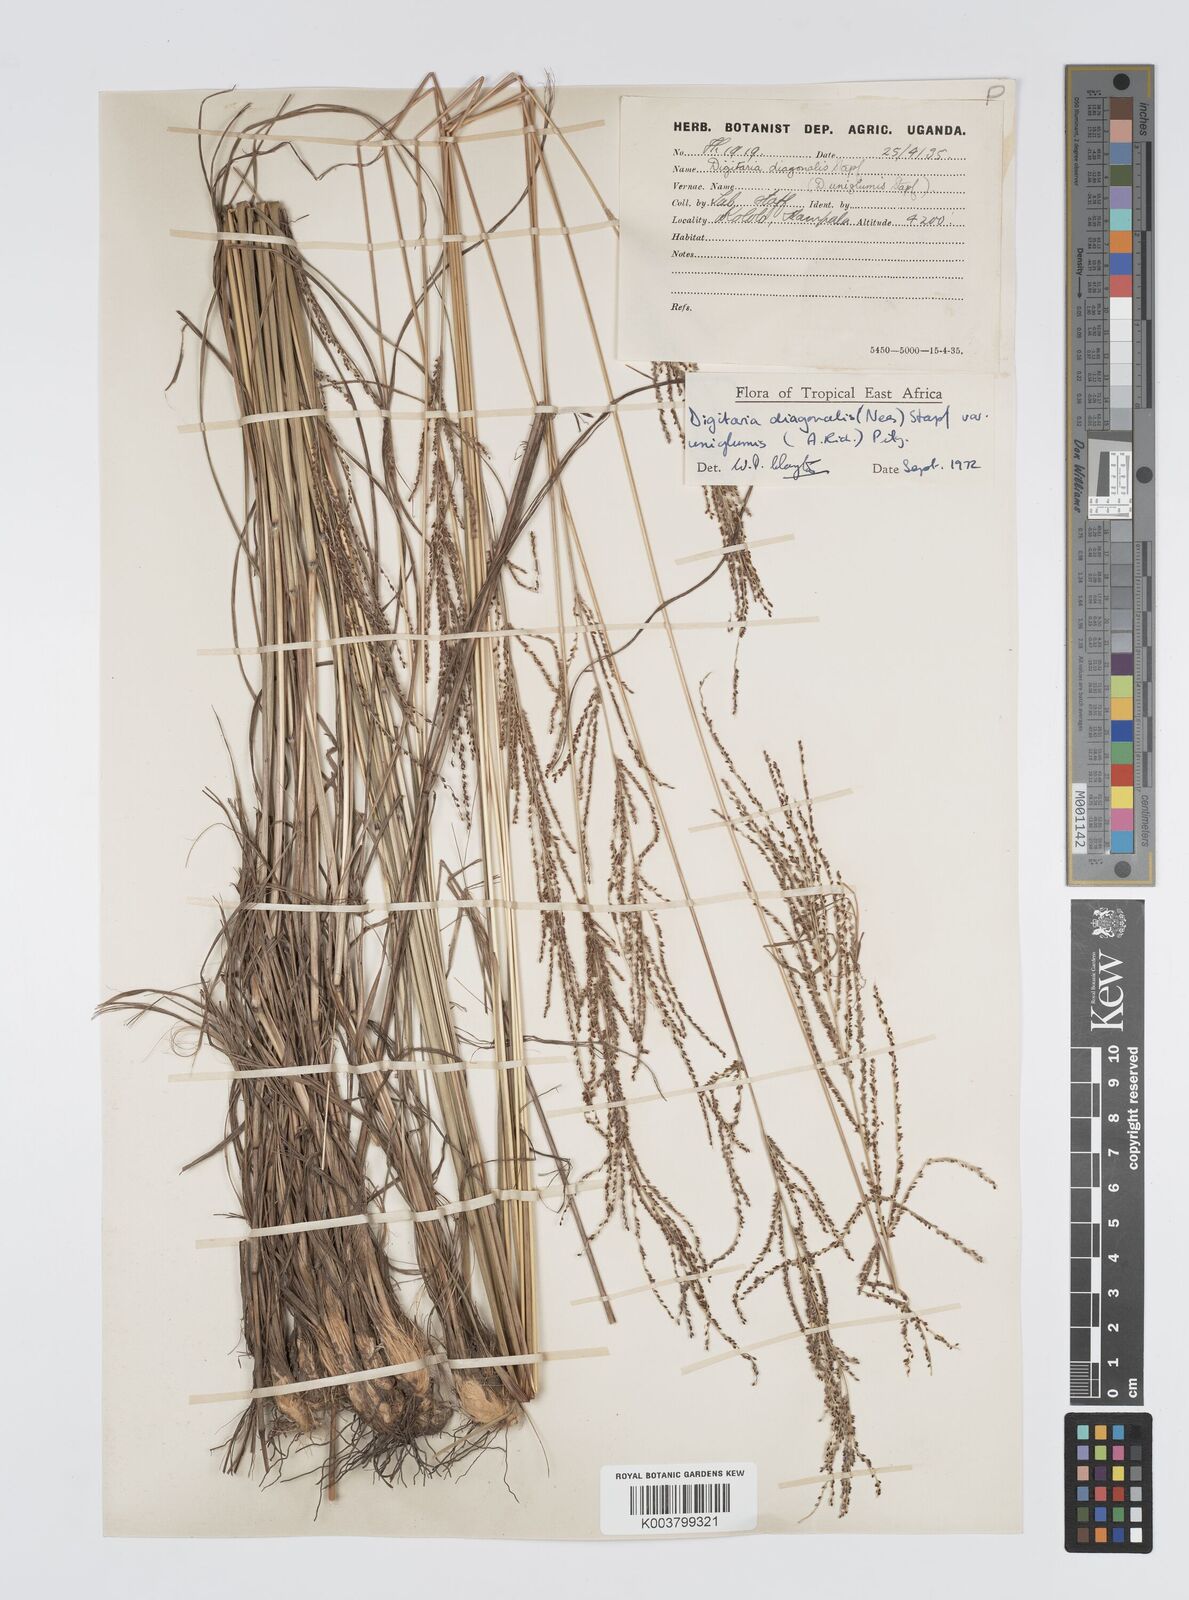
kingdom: Plantae
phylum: Tracheophyta
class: Liliopsida
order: Poales
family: Poaceae
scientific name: Poaceae
